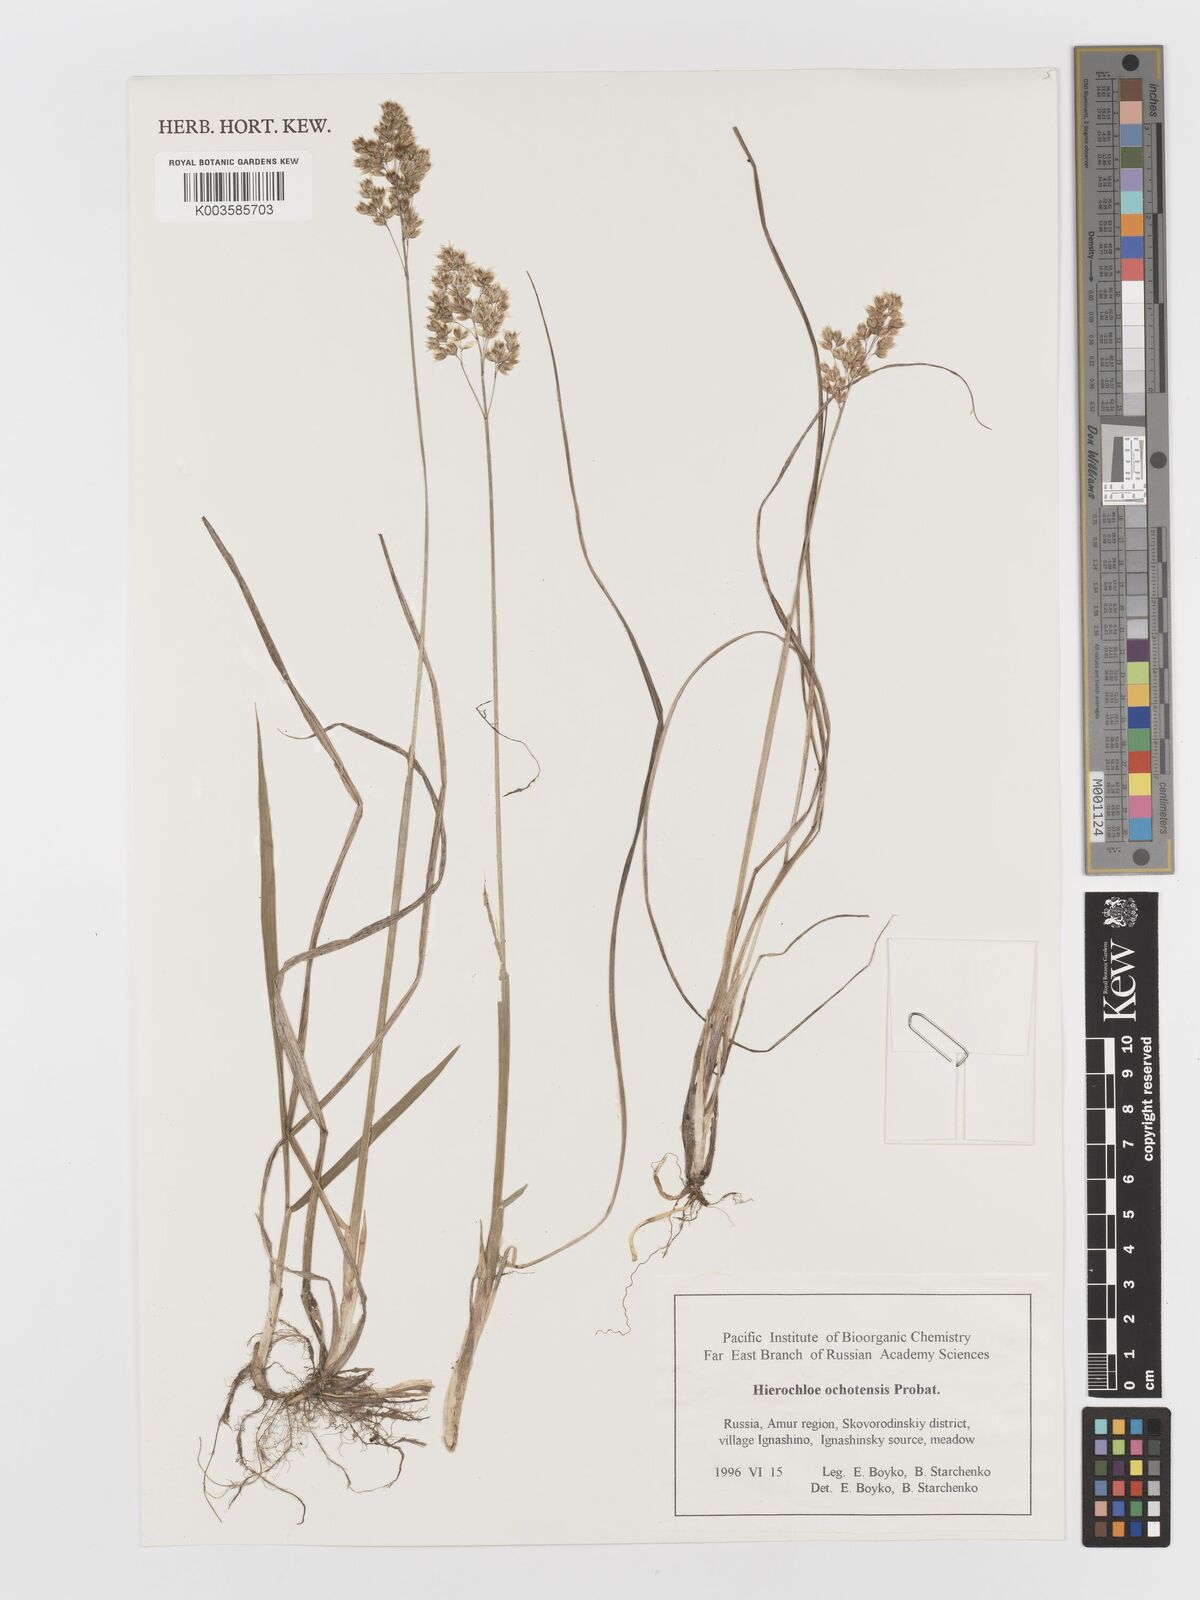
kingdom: Plantae
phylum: Tracheophyta
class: Liliopsida
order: Poales
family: Poaceae
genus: Anthoxanthum
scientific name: Anthoxanthum glabrum
